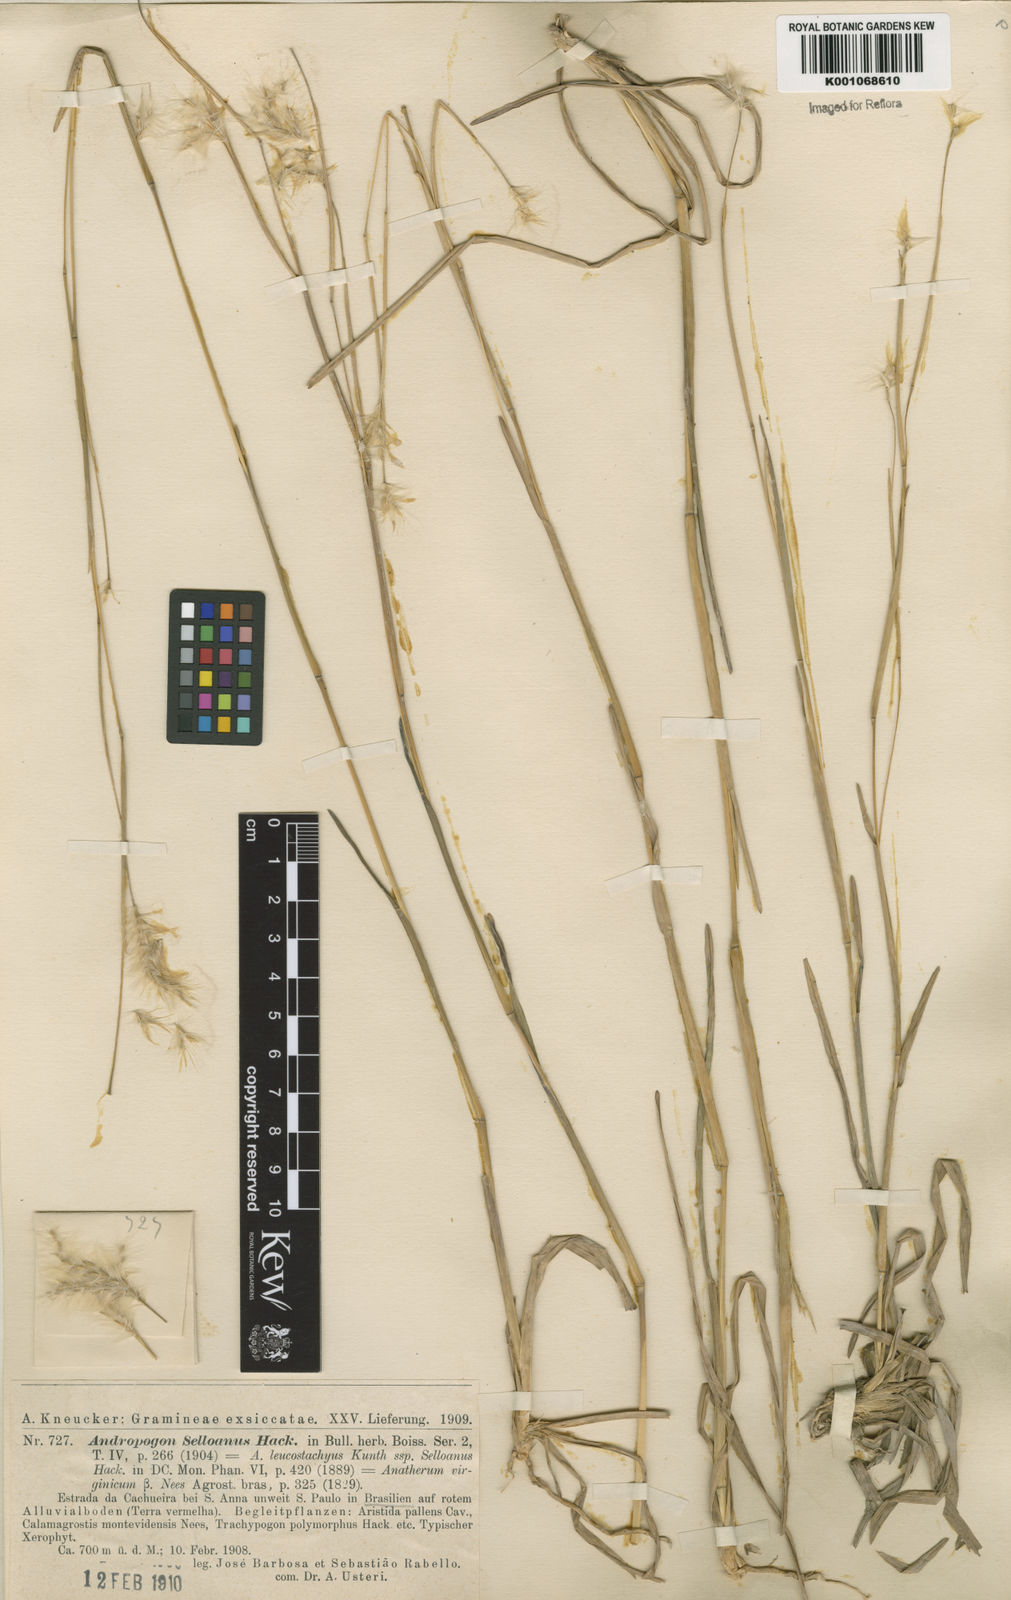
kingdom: Plantae
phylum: Tracheophyta
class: Liliopsida
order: Poales
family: Poaceae
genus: Andropogon
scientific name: Andropogon selloanus
